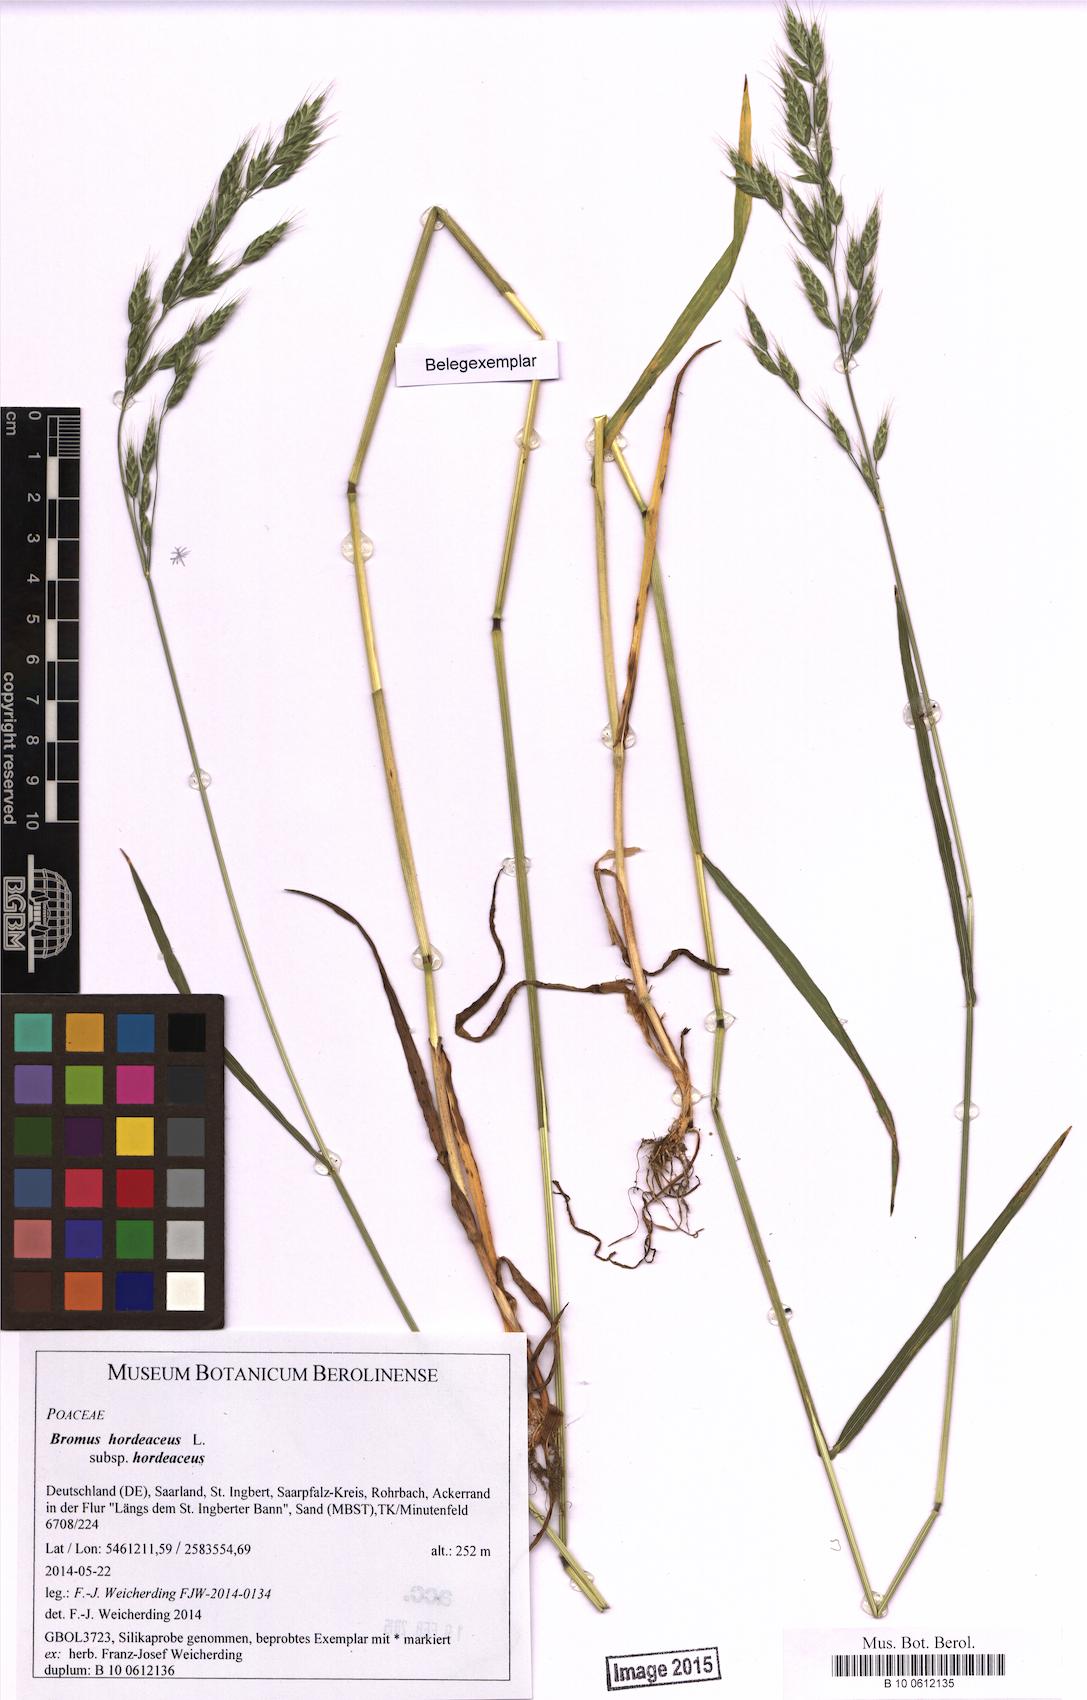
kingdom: Plantae
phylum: Tracheophyta
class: Liliopsida
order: Poales
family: Poaceae
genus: Bromus
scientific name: Bromus hordeaceus
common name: Soft brome
